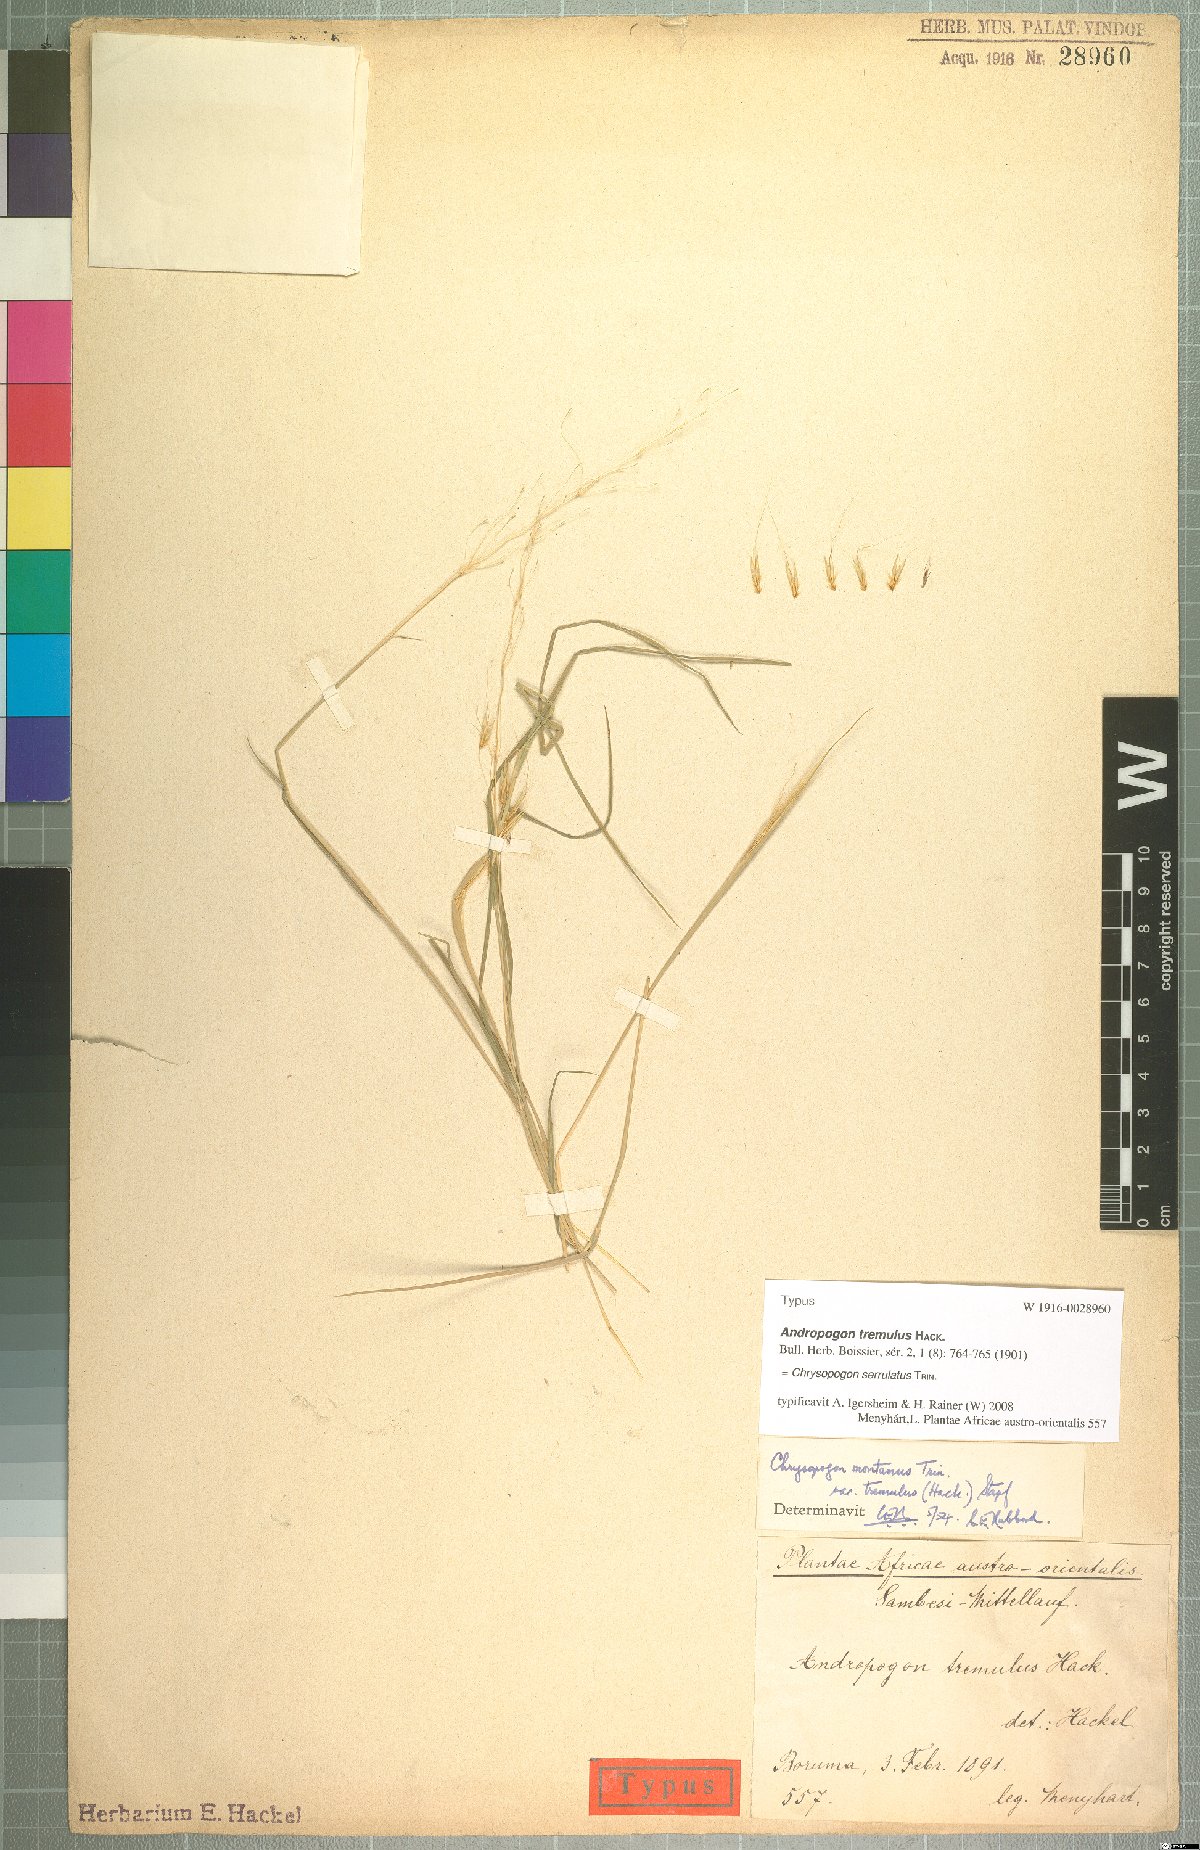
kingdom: Plantae
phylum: Tracheophyta
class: Liliopsida
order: Poales
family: Poaceae
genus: Chrysopogon
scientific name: Chrysopogon serrulatus
